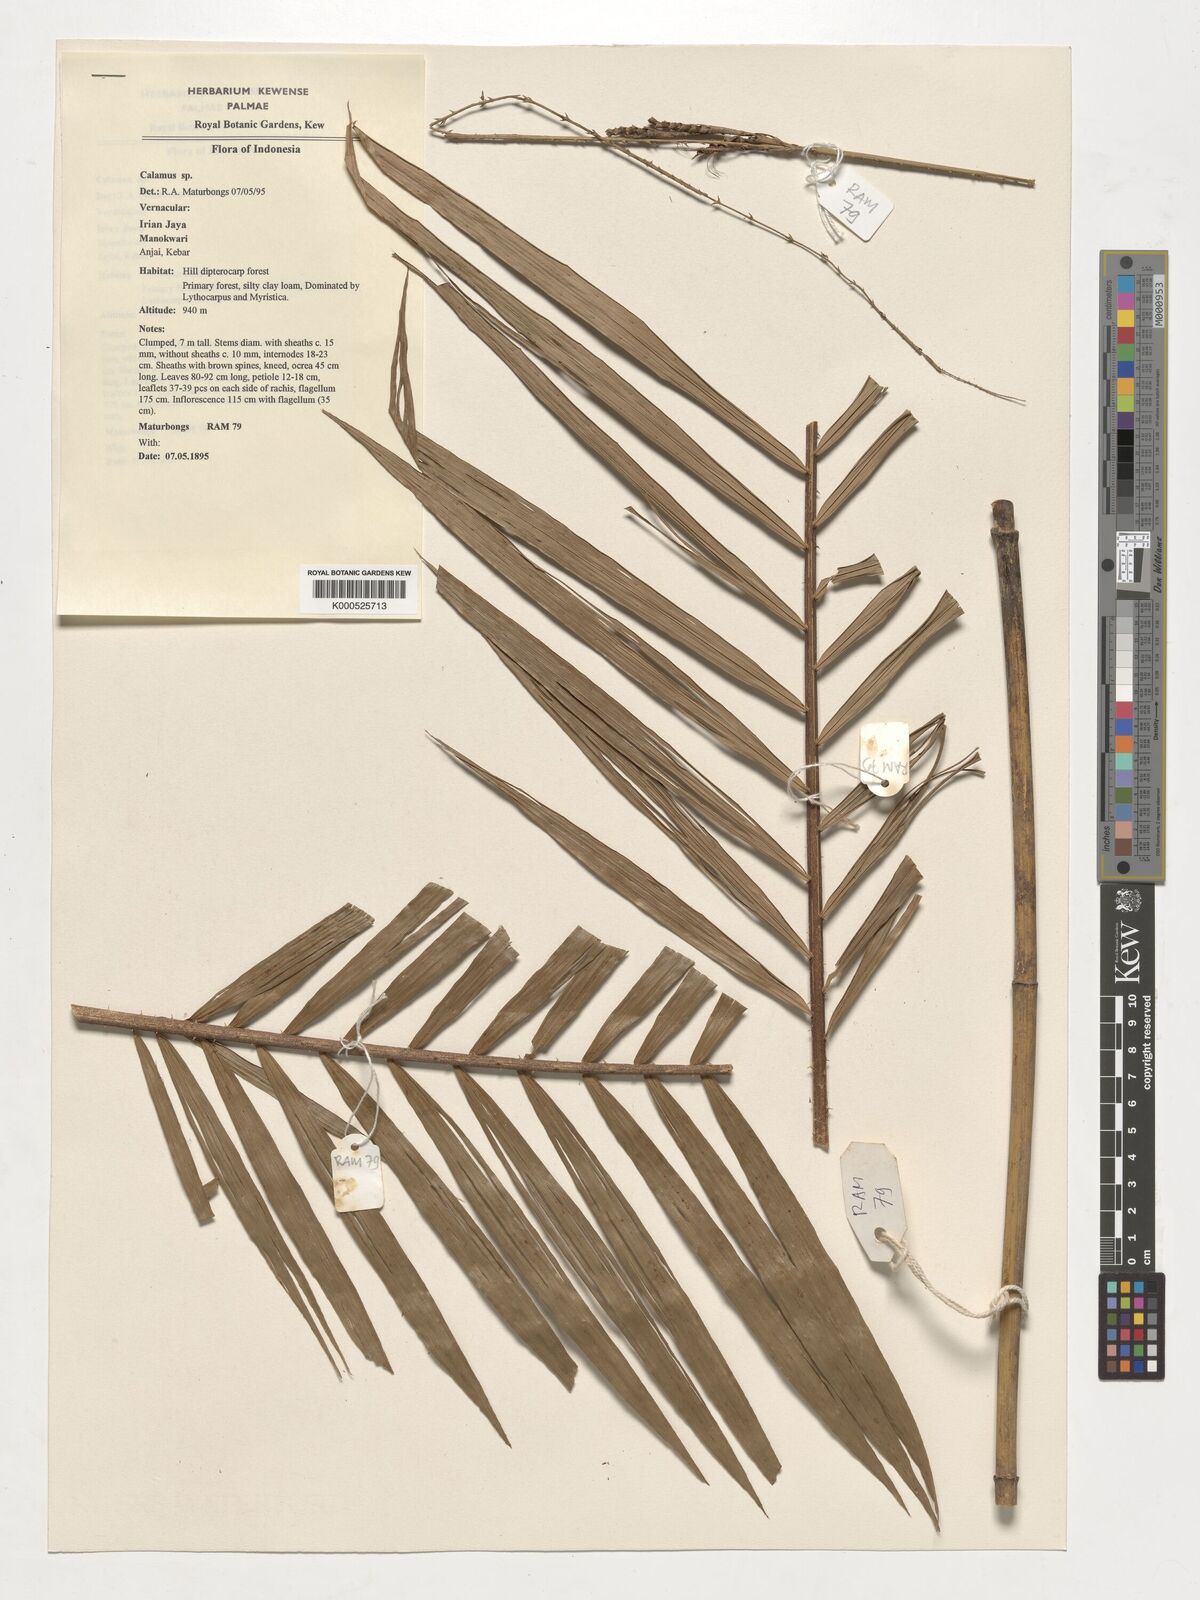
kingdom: Plantae
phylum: Tracheophyta
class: Liliopsida
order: Arecales
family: Arecaceae
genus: Calamus
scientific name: Calamus
